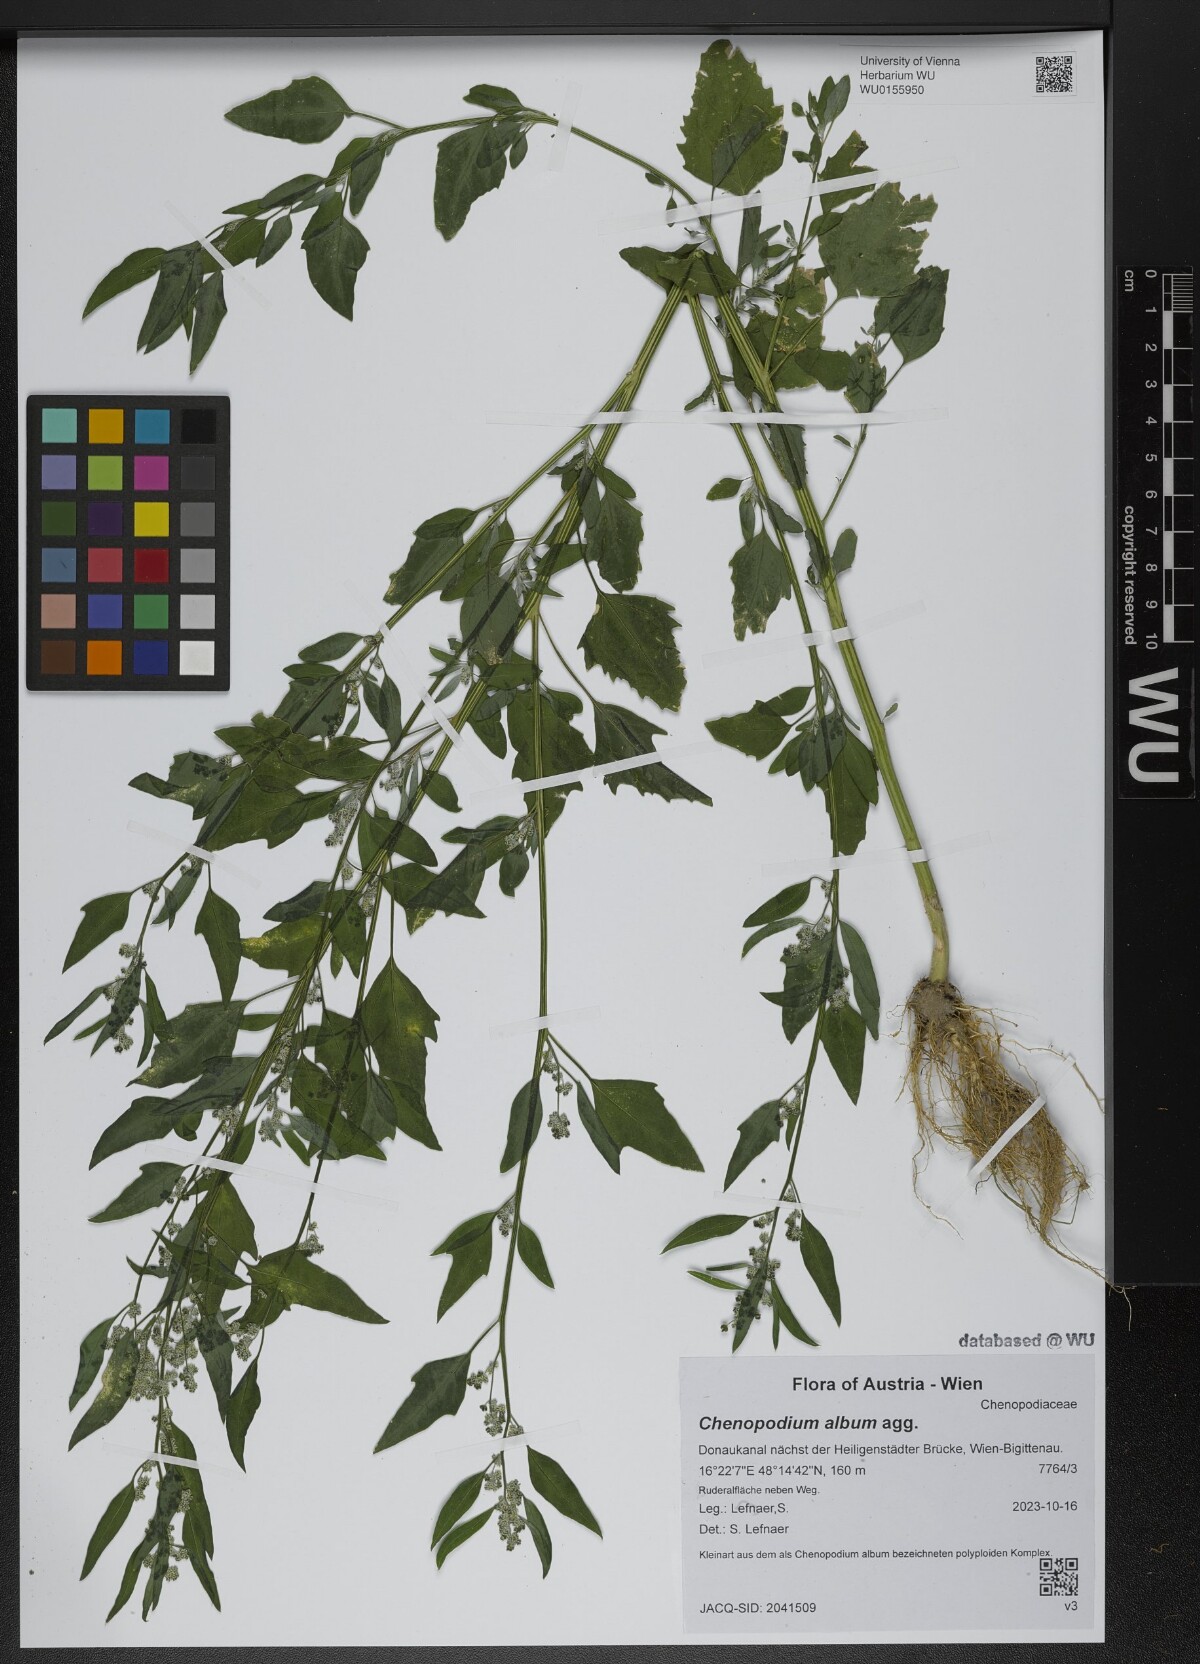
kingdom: Plantae
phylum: Tracheophyta
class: Magnoliopsida
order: Caryophyllales
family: Amaranthaceae
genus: Chenopodium
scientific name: Chenopodium album
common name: Fat-hen
